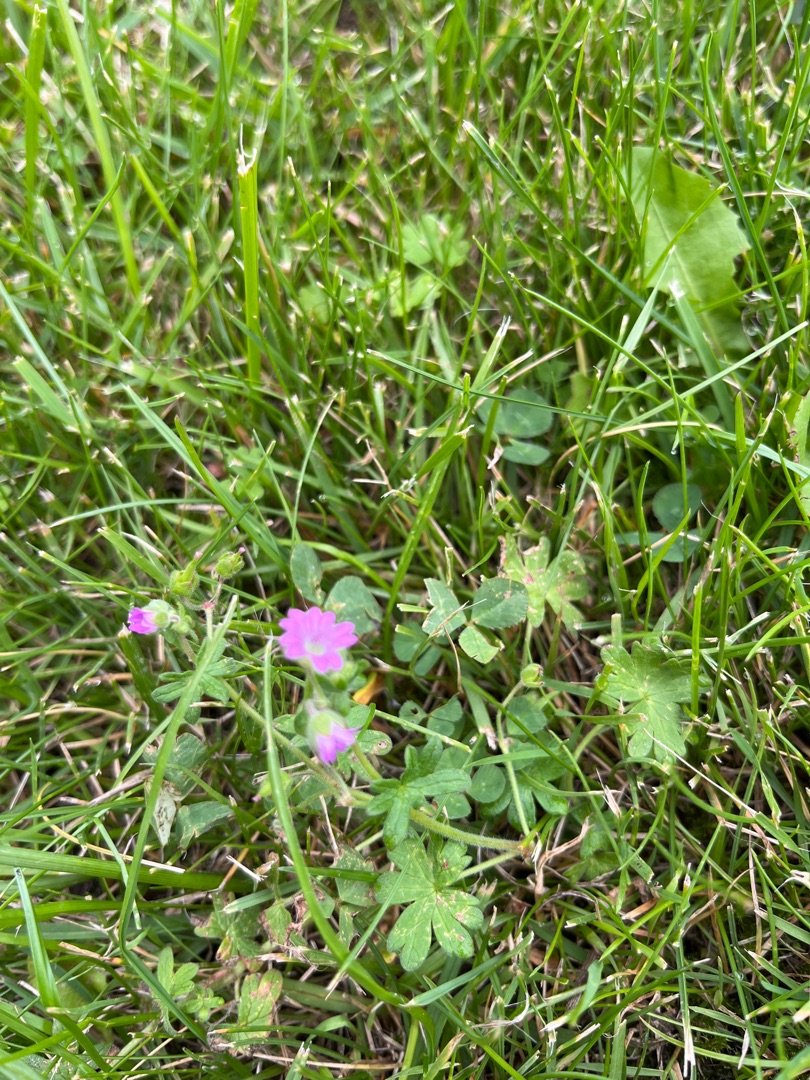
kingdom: Plantae
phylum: Tracheophyta
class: Magnoliopsida
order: Geraniales
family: Geraniaceae
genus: Geranium
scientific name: Geranium molle
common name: Blød storkenæb
